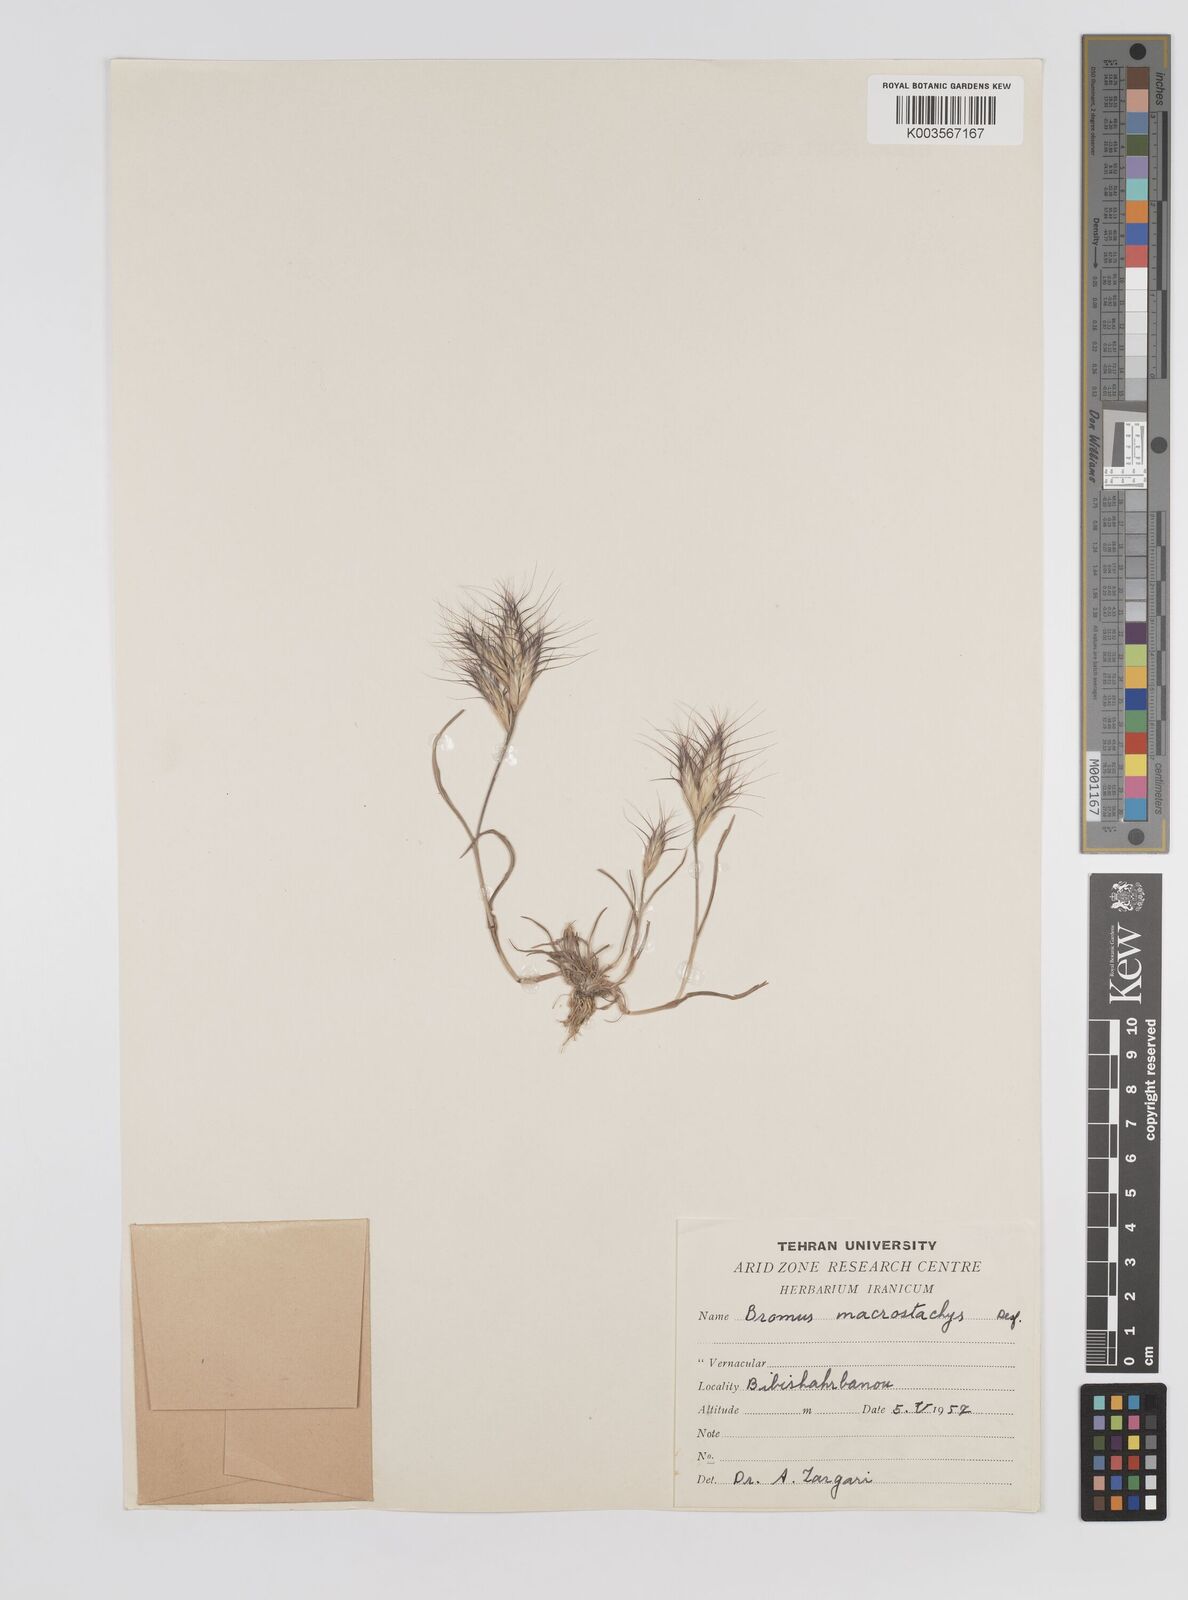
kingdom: Plantae
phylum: Tracheophyta
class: Liliopsida
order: Poales
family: Poaceae
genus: Bromus
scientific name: Bromus danthoniae
